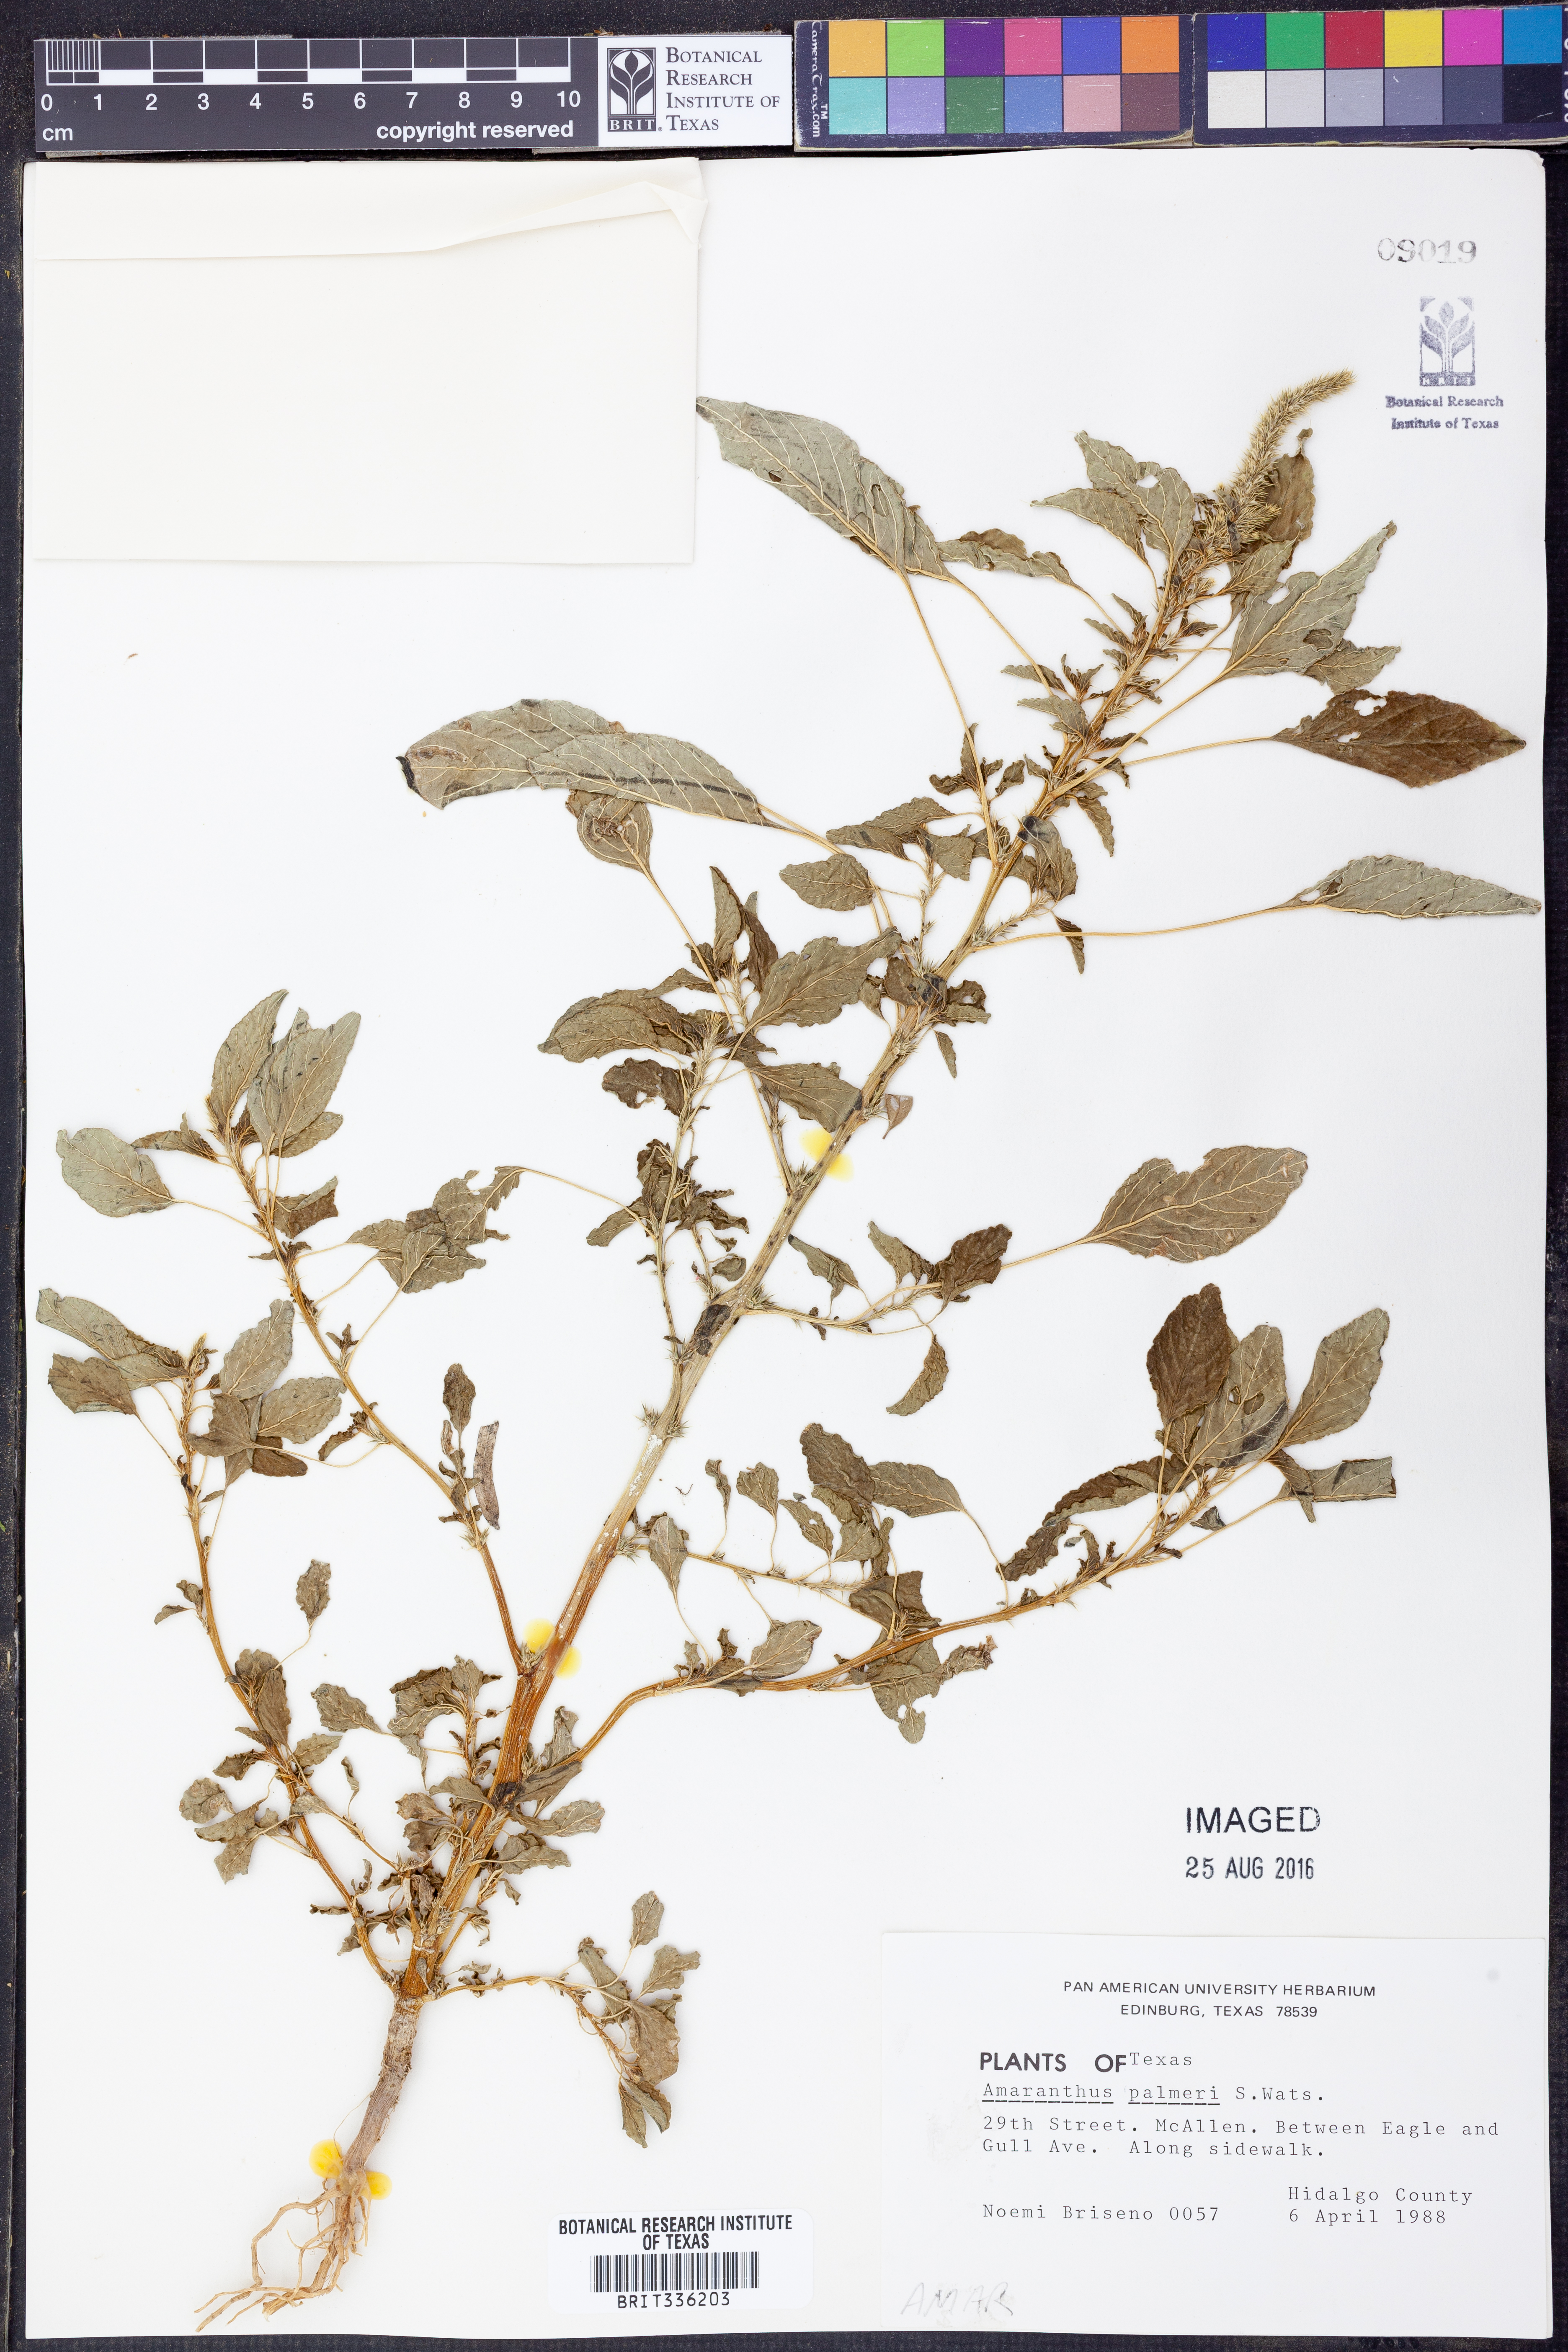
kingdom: Plantae
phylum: Tracheophyta
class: Magnoliopsida
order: Caryophyllales
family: Amaranthaceae
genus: Amaranthus
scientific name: Amaranthus palmeri
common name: Dioecious amaranth
